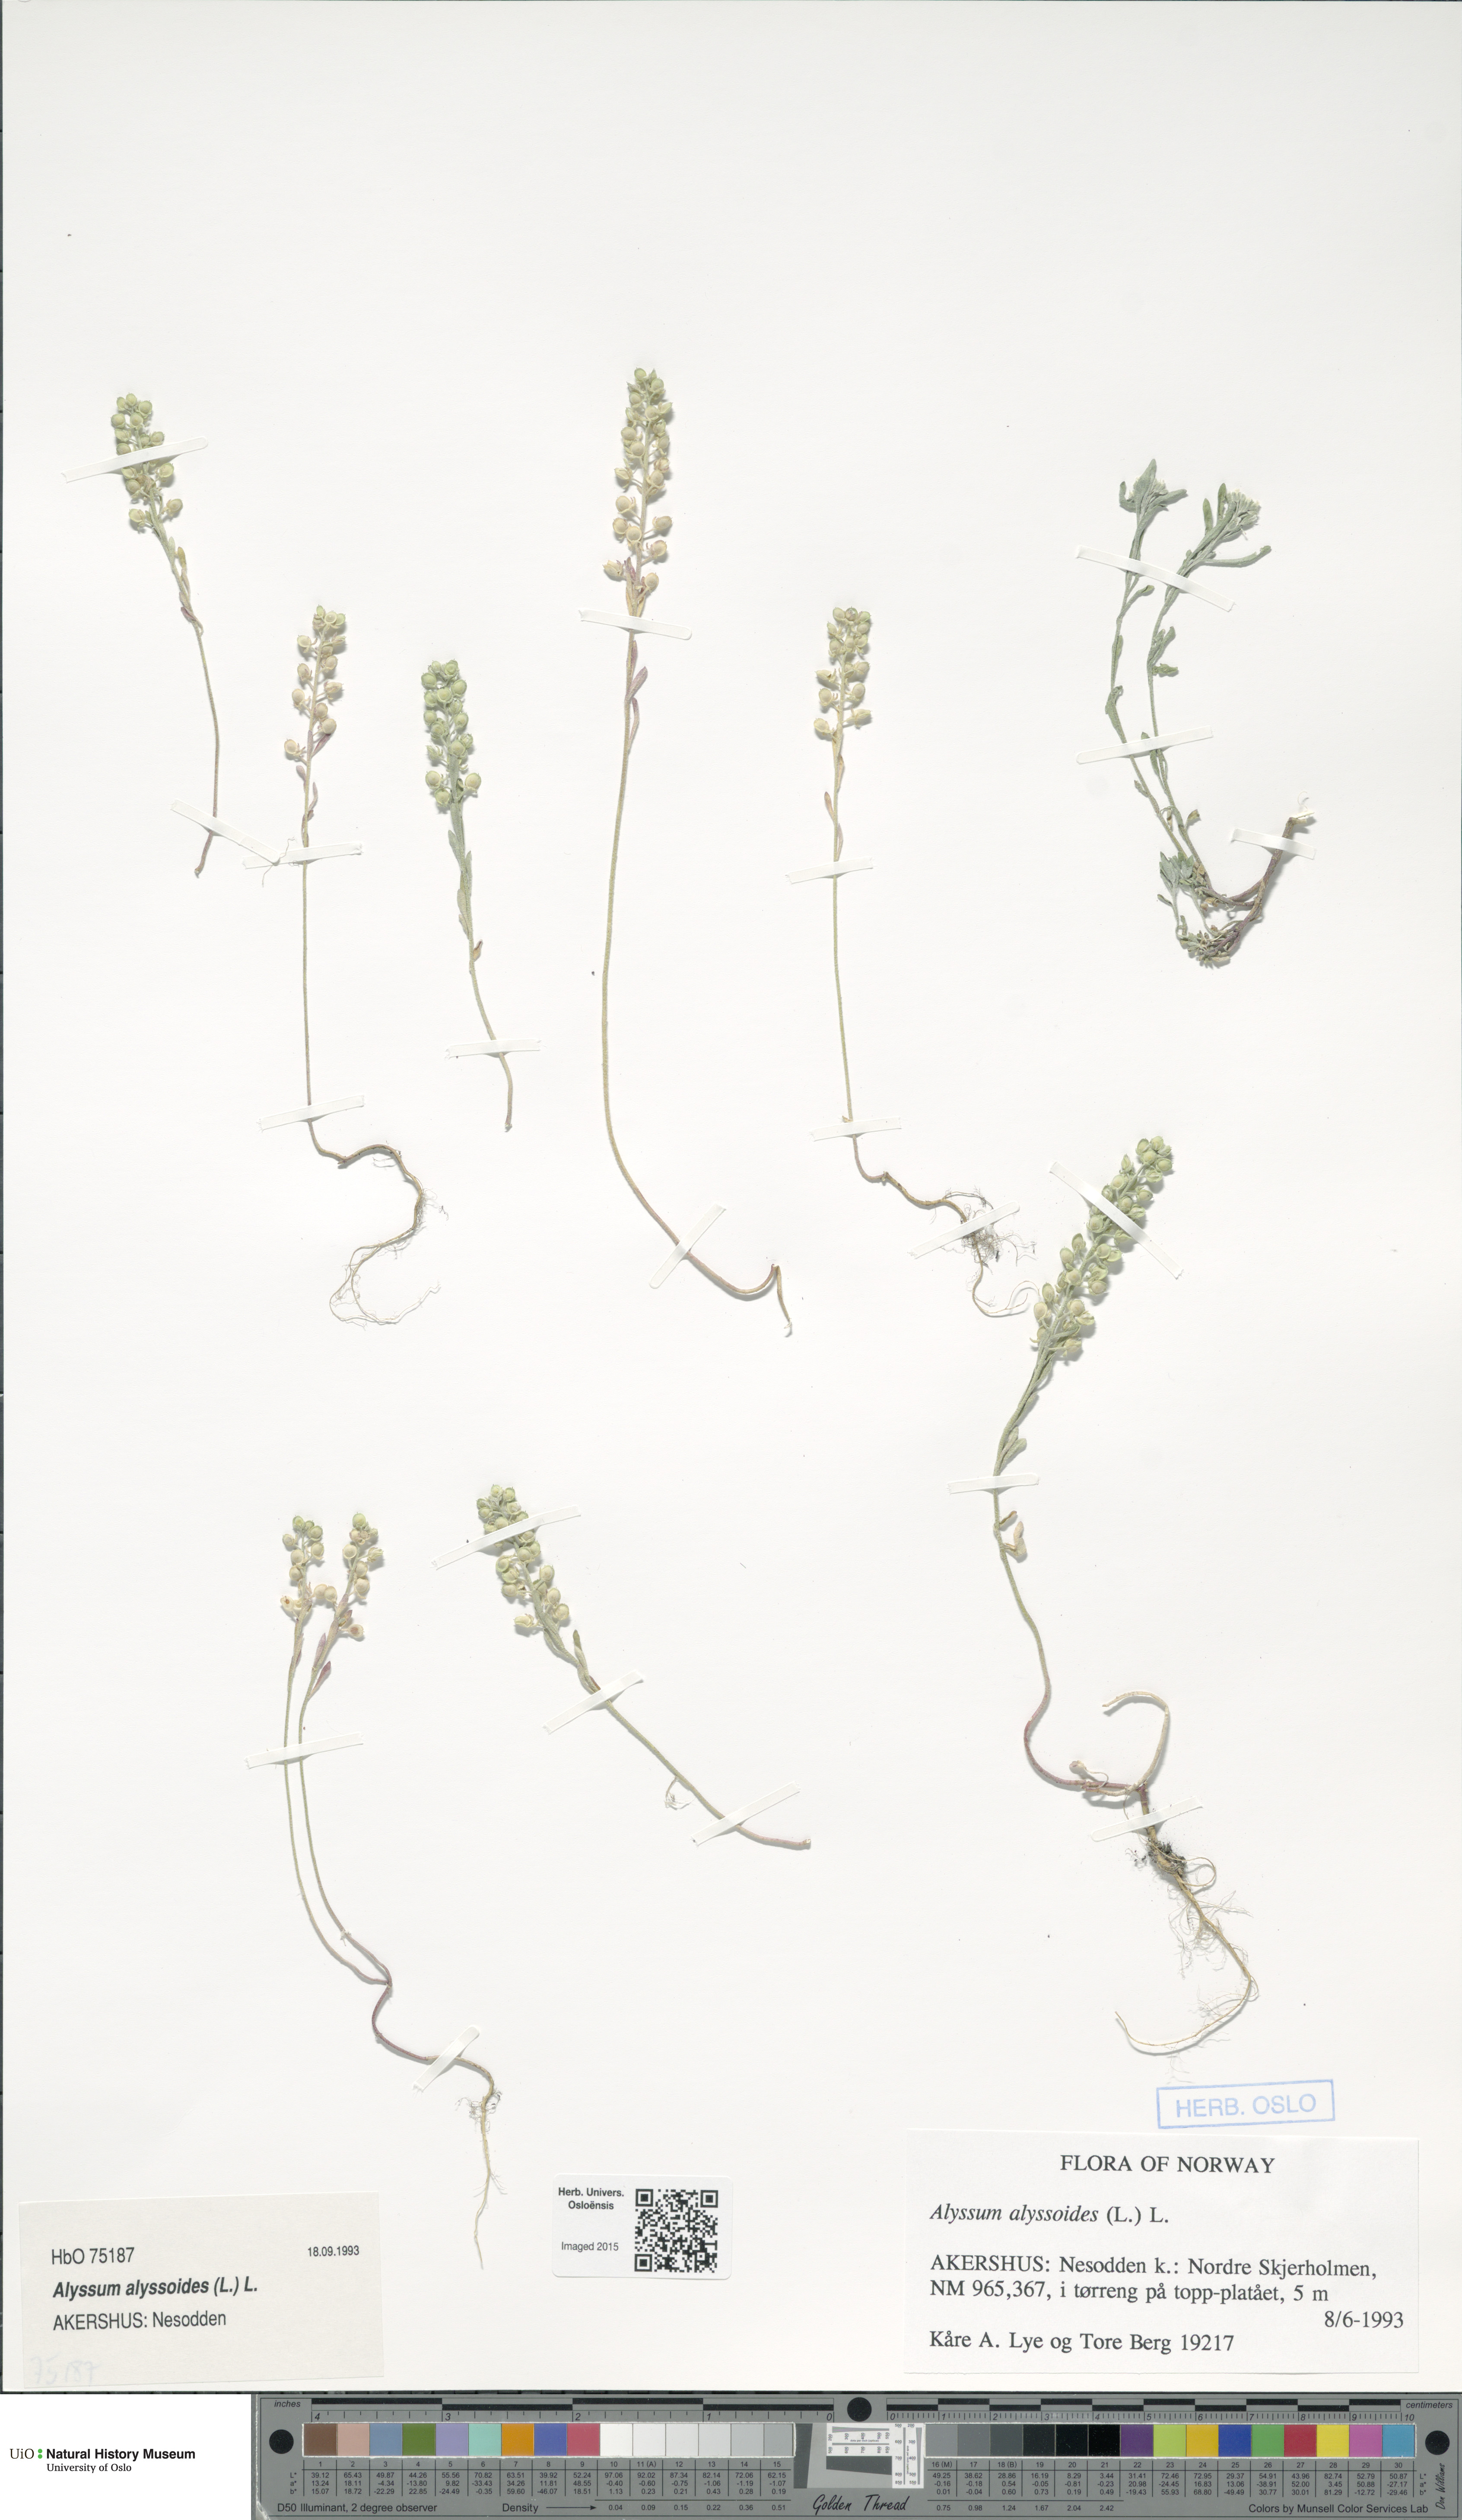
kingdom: Plantae
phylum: Tracheophyta
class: Magnoliopsida
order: Brassicales
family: Brassicaceae
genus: Alyssum
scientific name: Alyssum alyssoides
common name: Small alison
